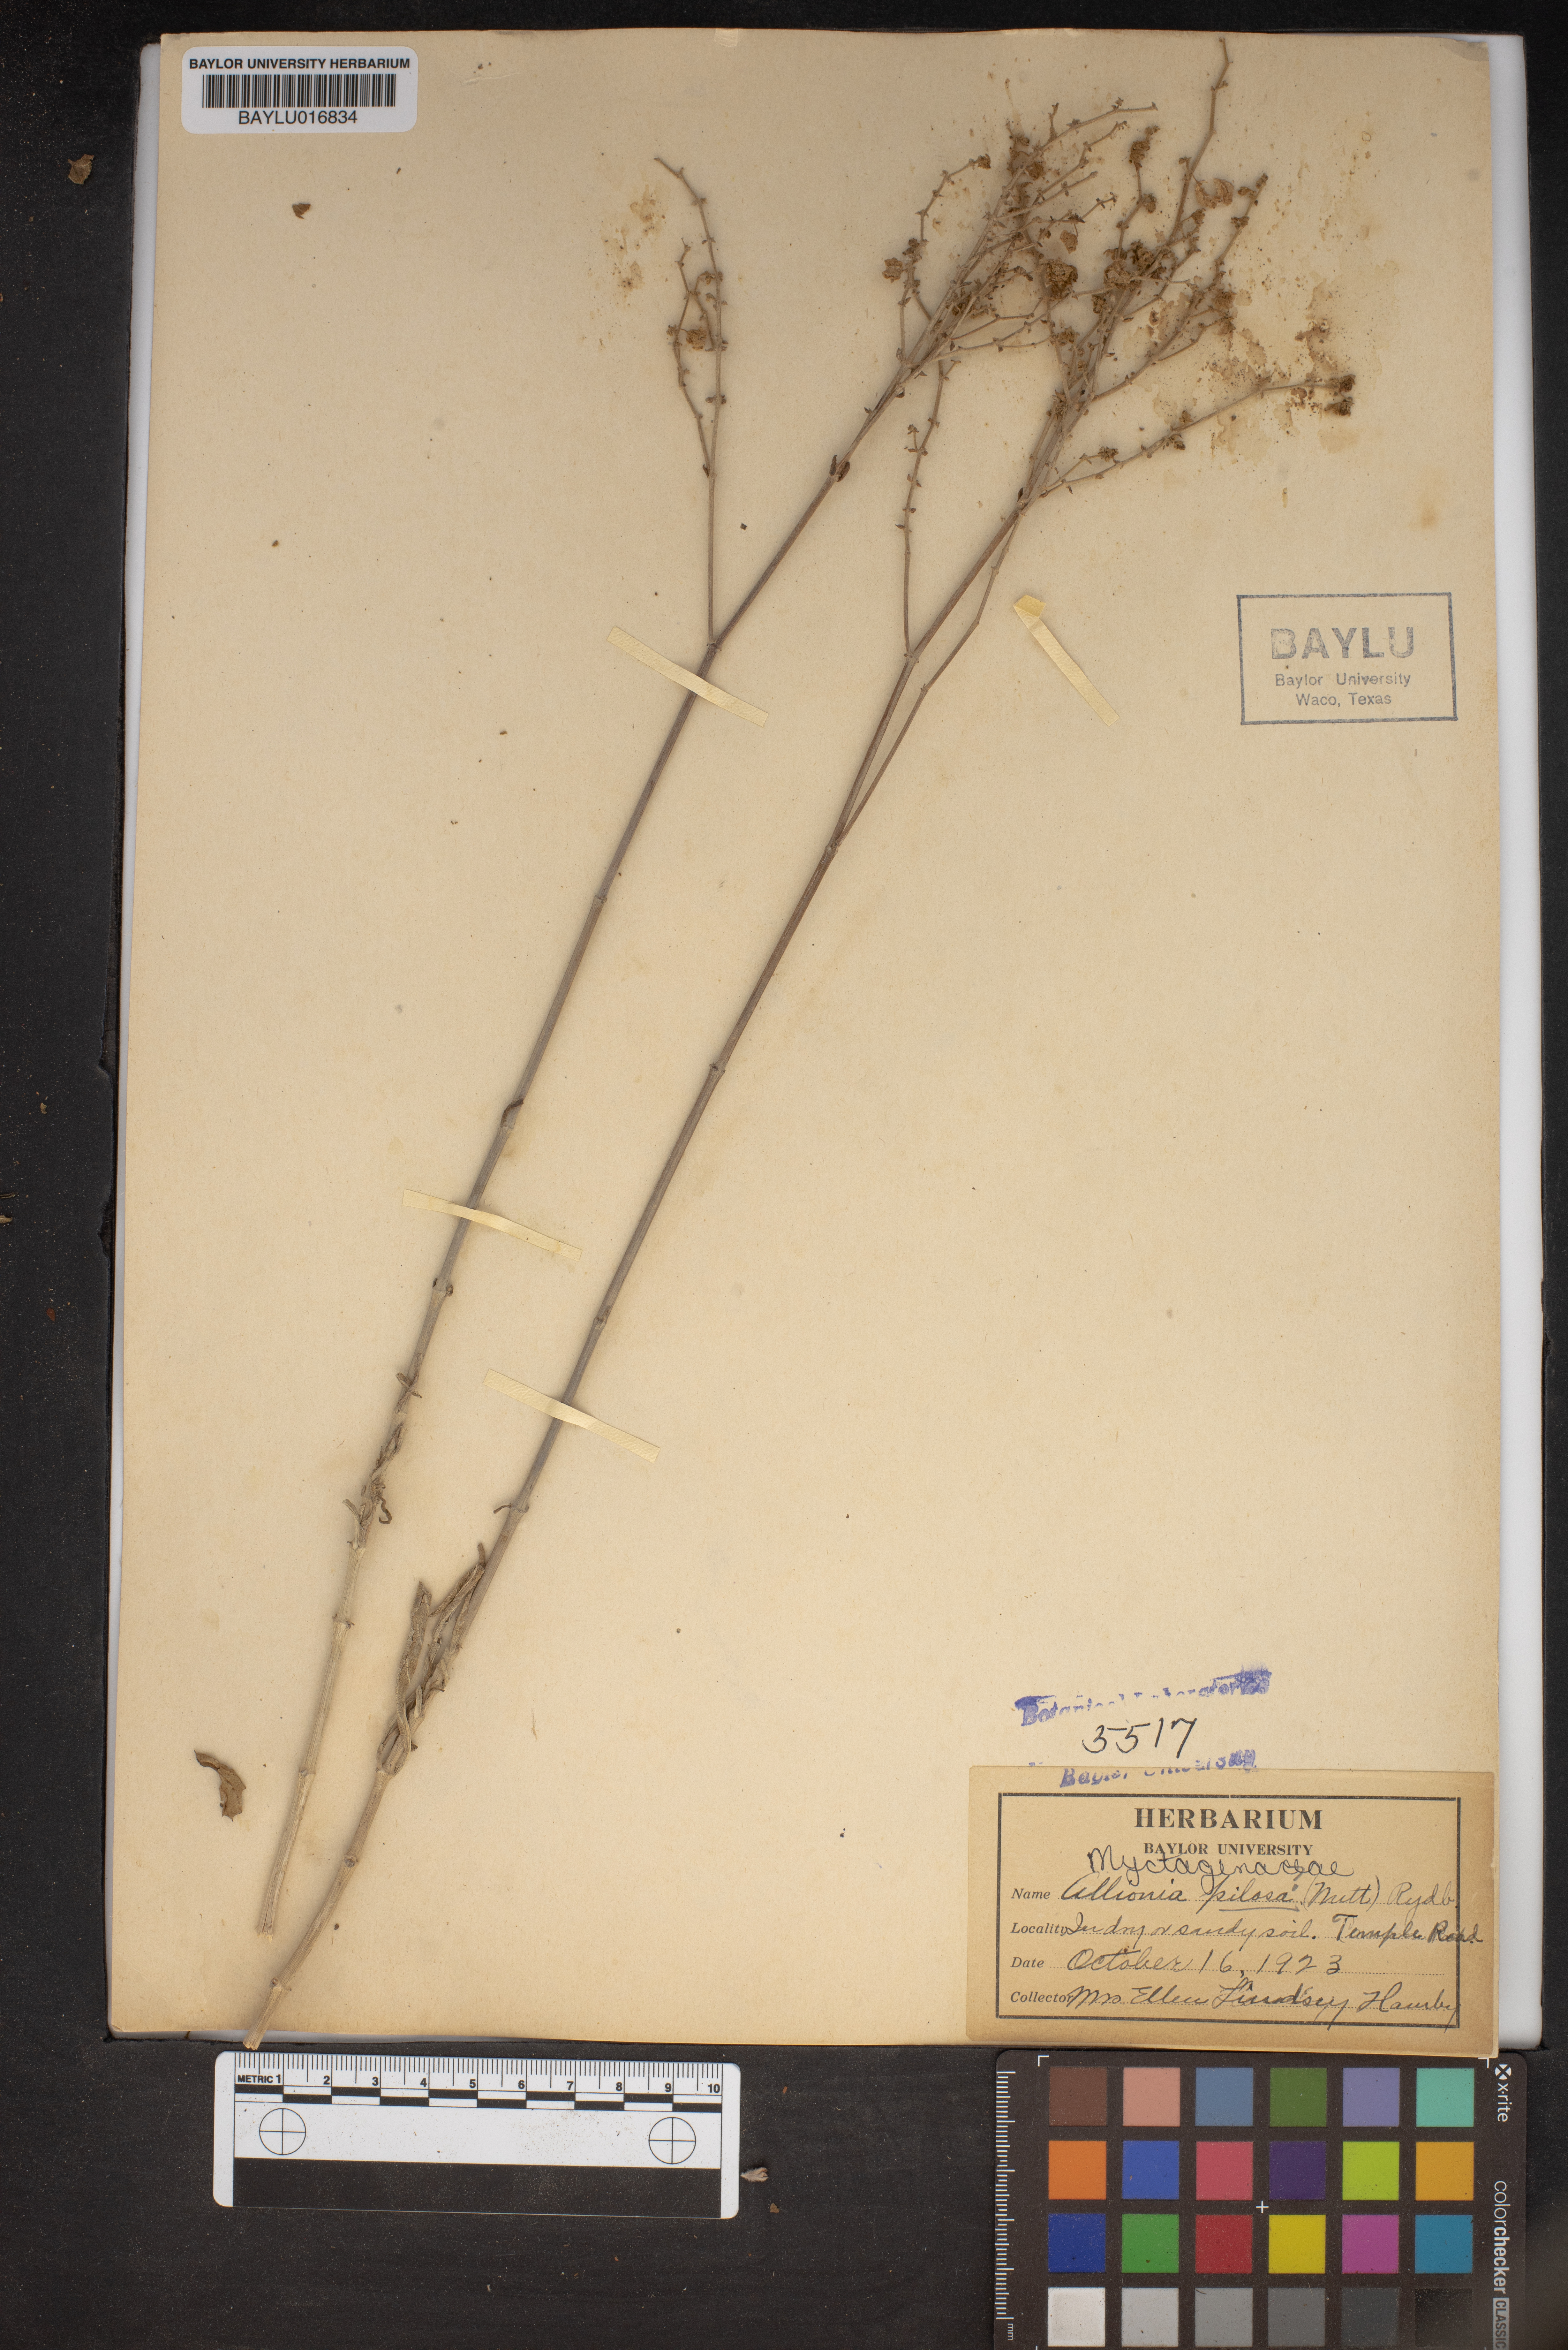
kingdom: Plantae
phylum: Tracheophyta
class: Magnoliopsida
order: Caryophyllales
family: Nyctaginaceae
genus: Mirabilis
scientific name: Mirabilis albida
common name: Hairy four-o'clock
